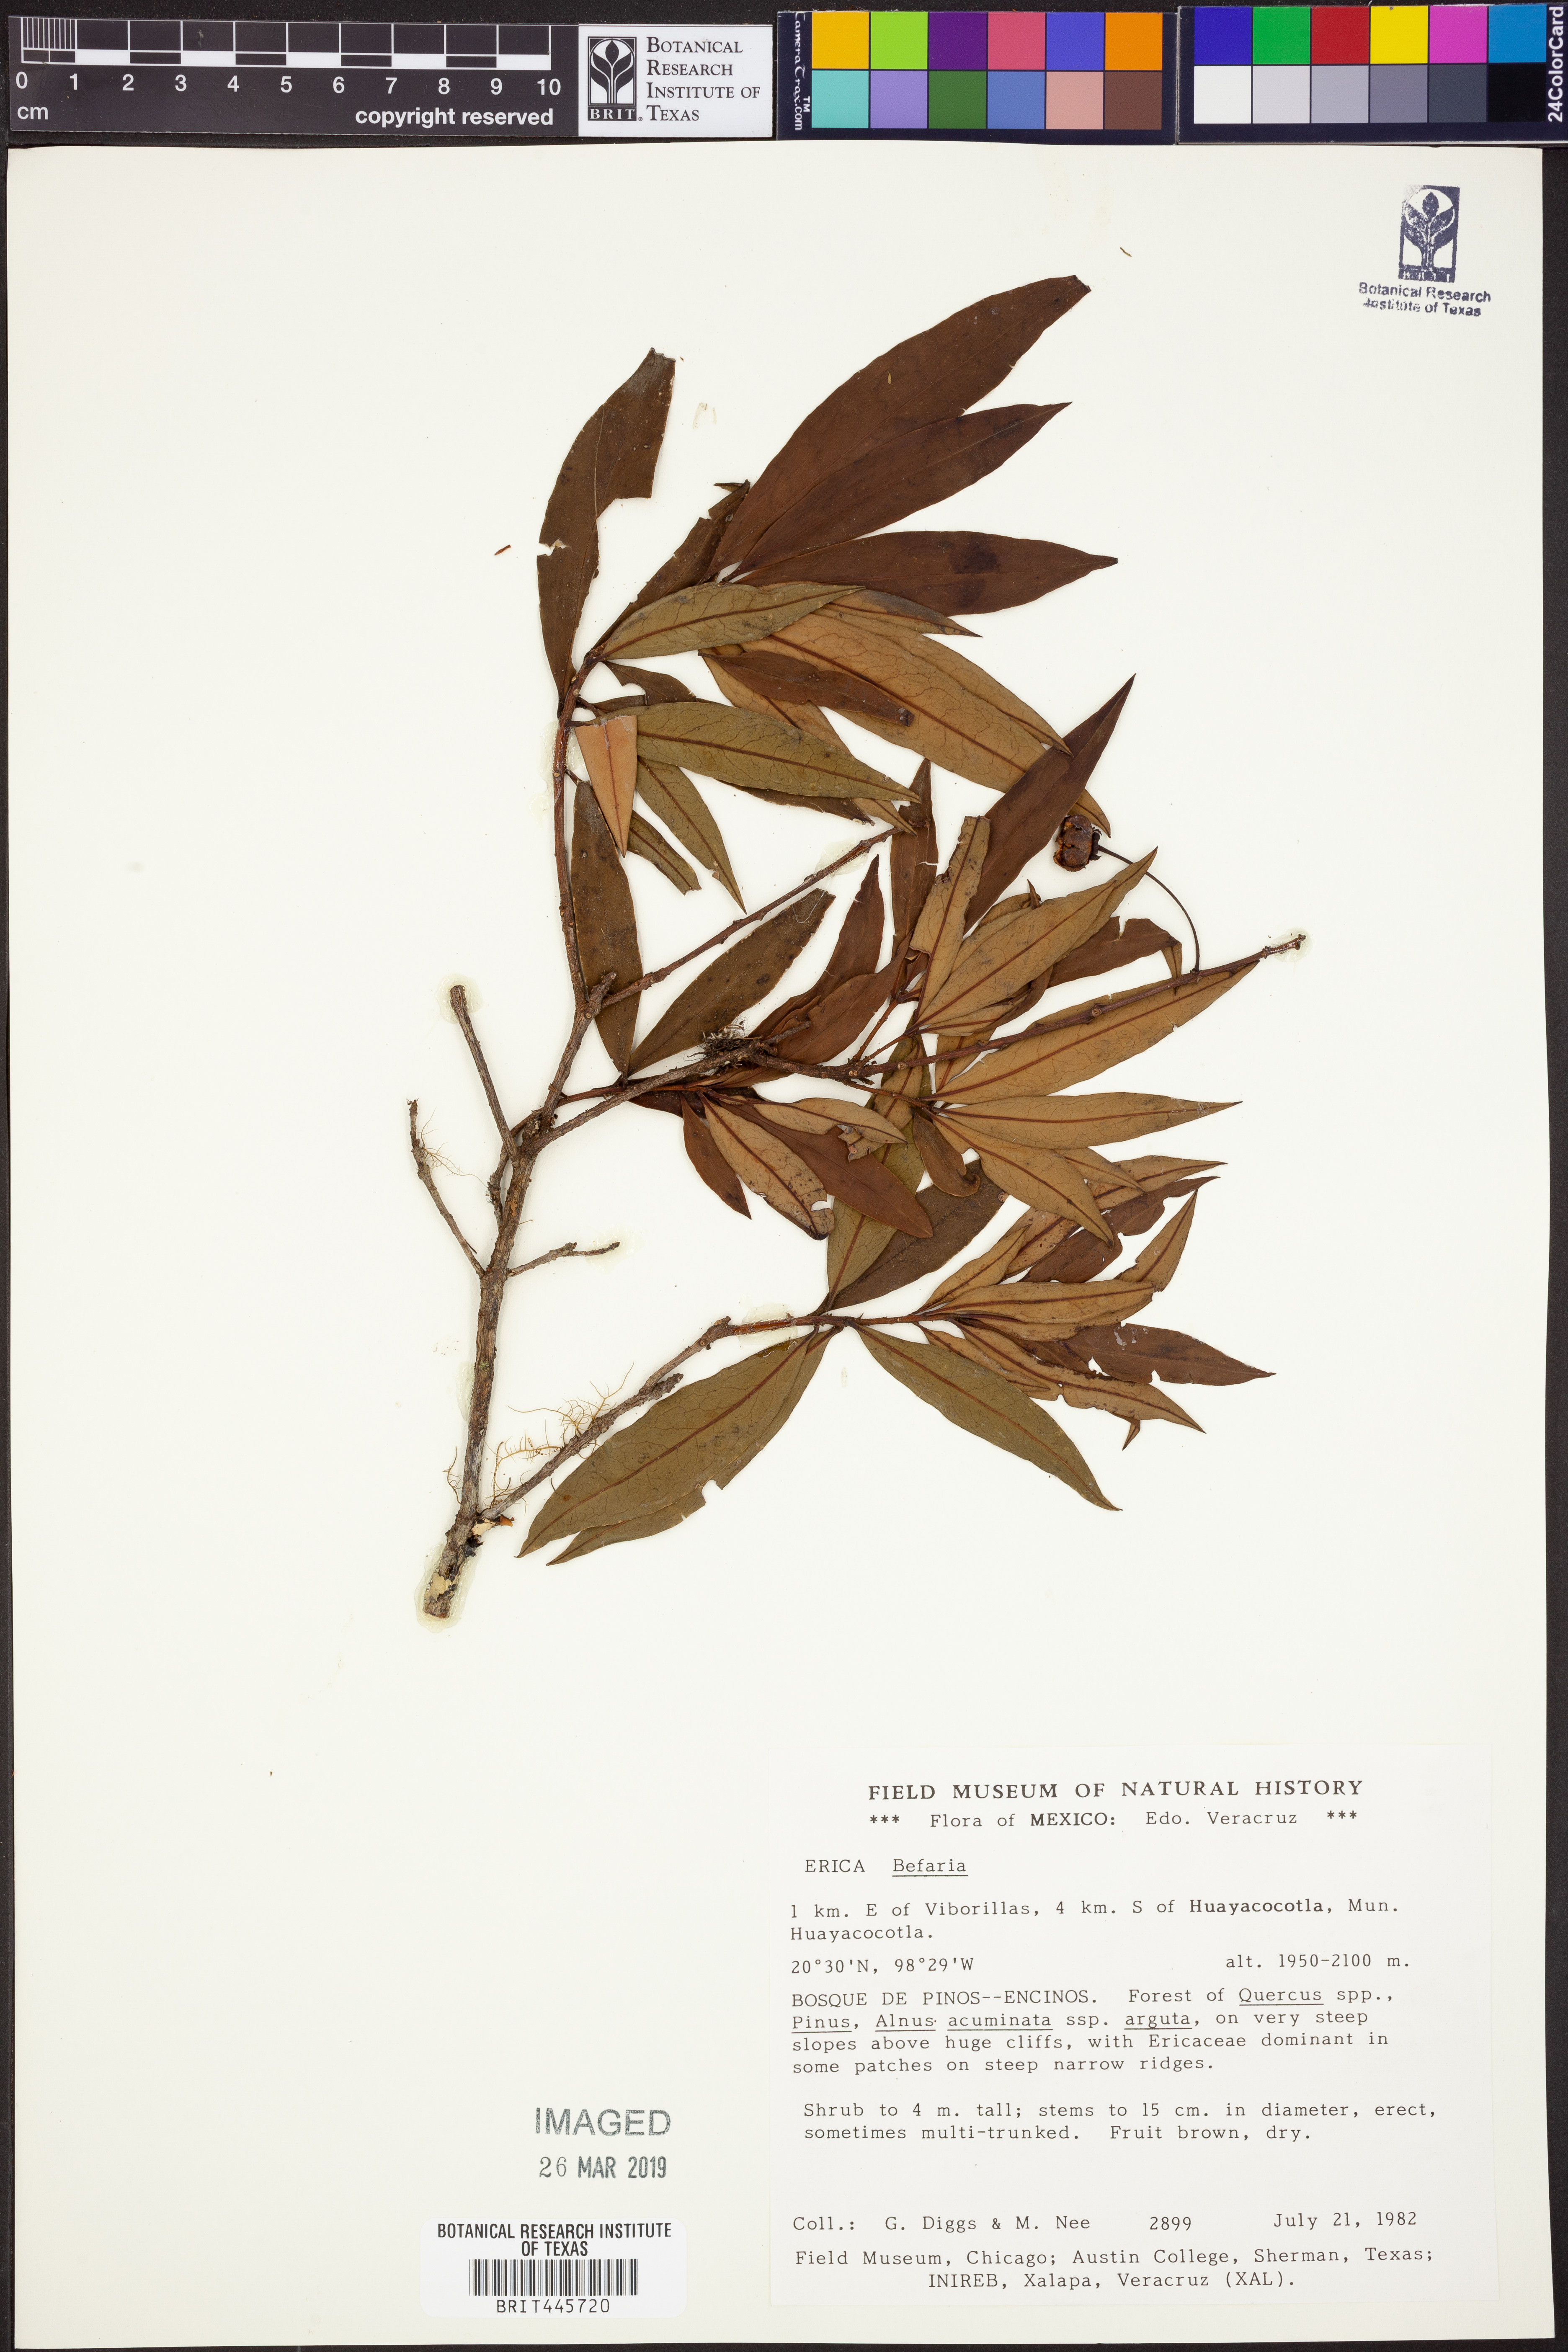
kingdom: Plantae
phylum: Tracheophyta
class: Magnoliopsida
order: Ericales
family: Ericaceae
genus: Befaria
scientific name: Befaria
